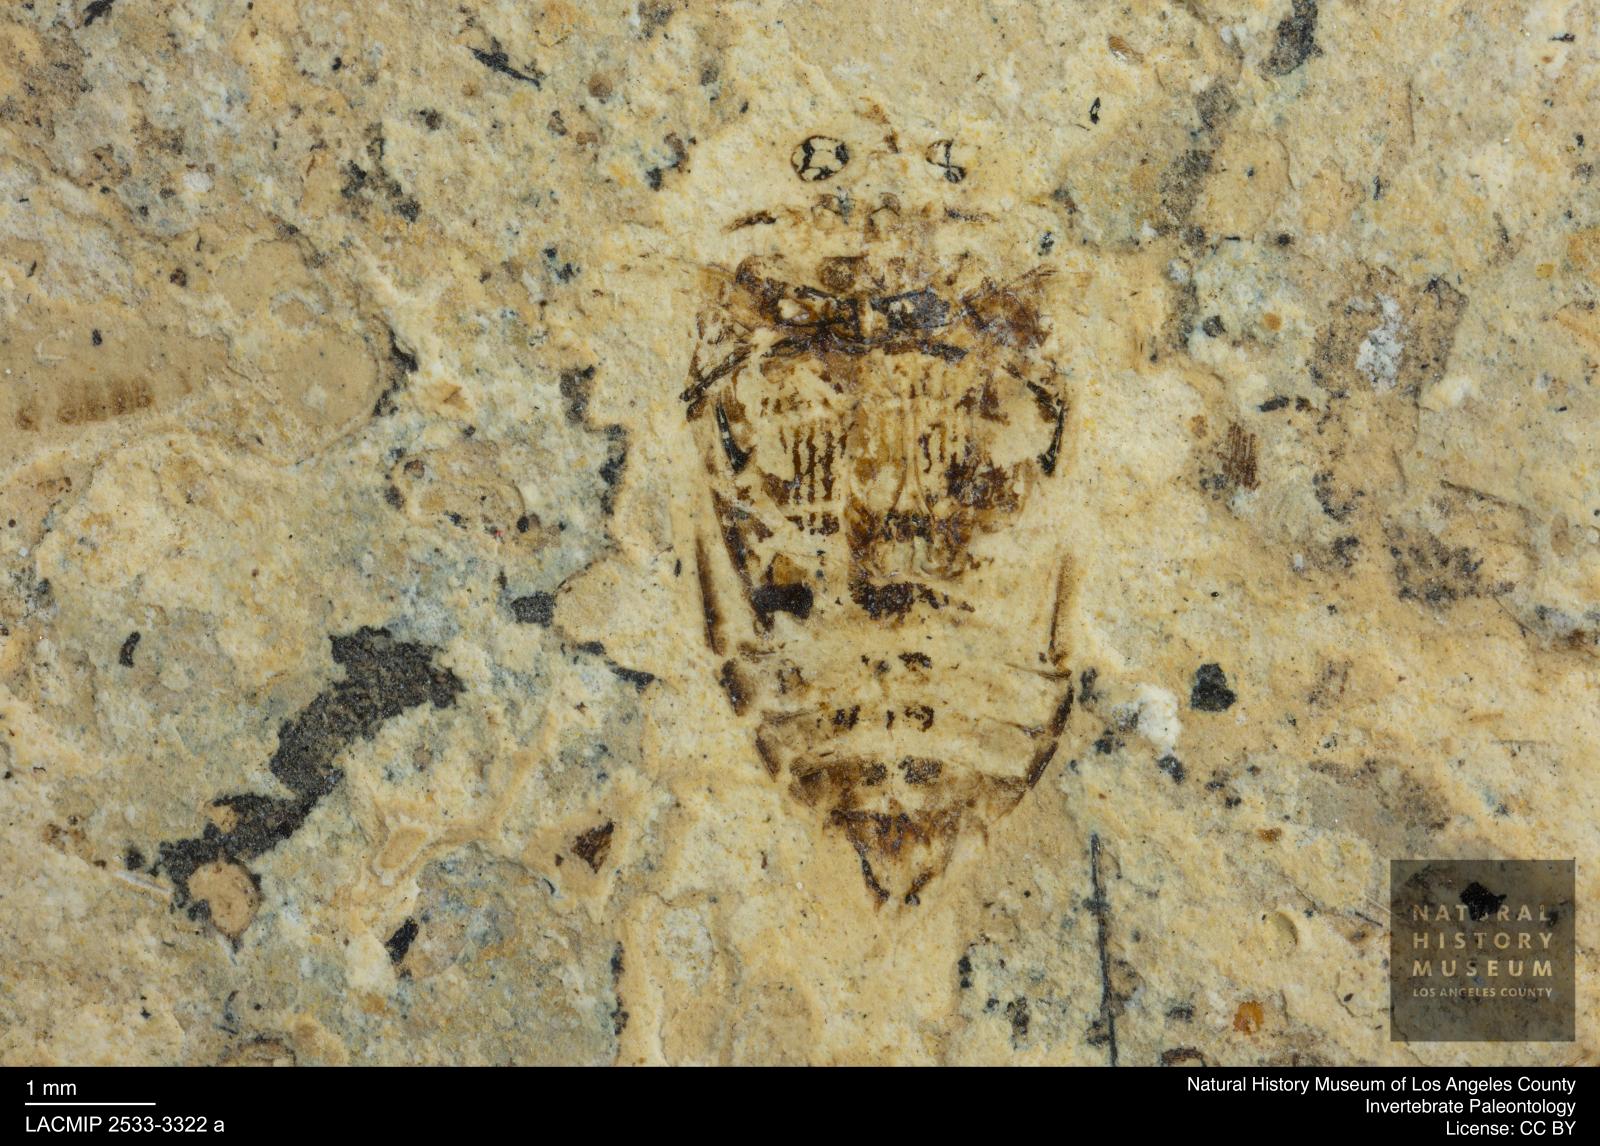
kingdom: Animalia
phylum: Arthropoda
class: Insecta
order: Coleoptera
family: Dytiscidae
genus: Laccophilus
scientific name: Laccophilus Palaeogyrinus strigatus
